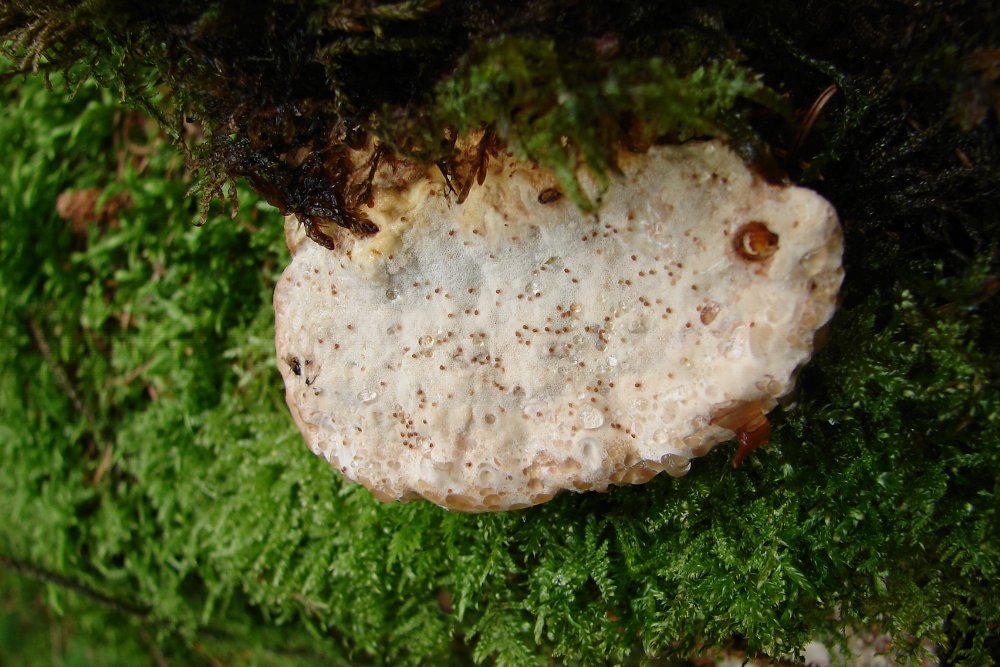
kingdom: Fungi
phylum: Basidiomycota
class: Agaricomycetes
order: Polyporales
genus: Calcipostia
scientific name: Calcipostia guttulata
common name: dråbe-kødporesvamp
